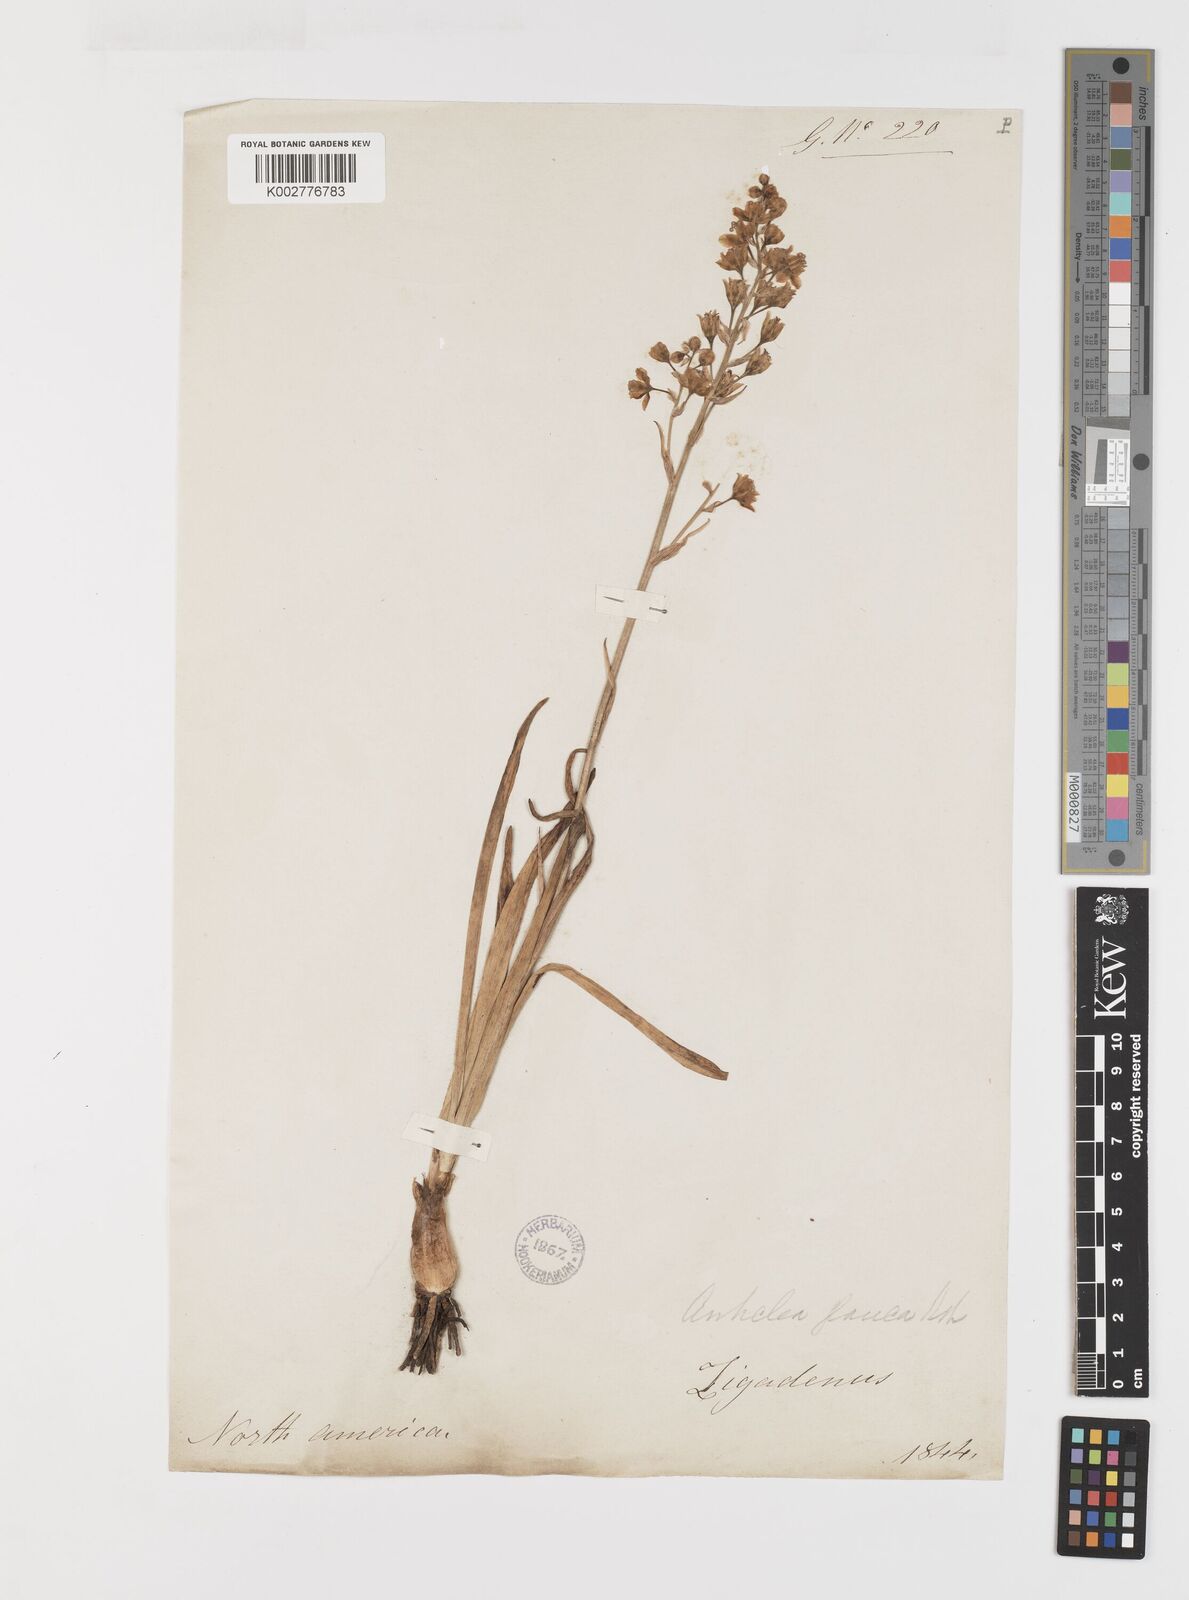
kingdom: Plantae
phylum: Tracheophyta
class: Liliopsida
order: Liliales
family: Melanthiaceae
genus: Anticlea
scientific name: Anticlea elegans
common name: Mountain death camas
